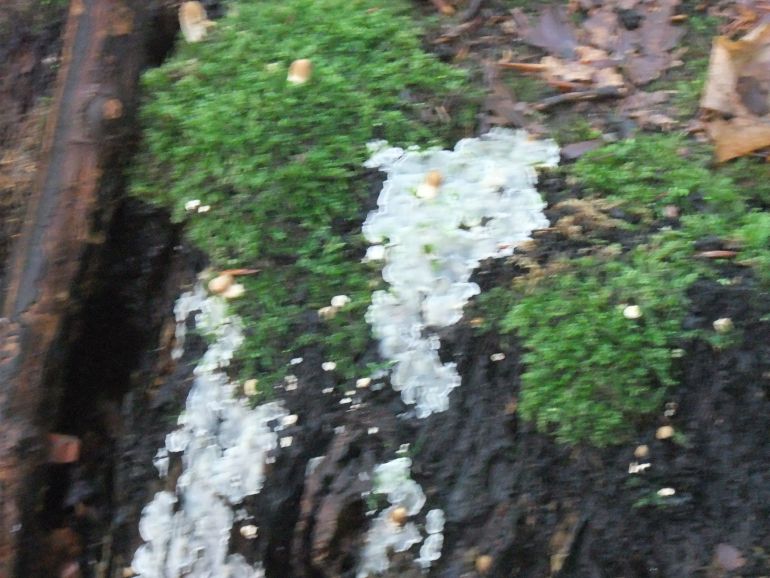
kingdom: Fungi
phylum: Basidiomycota
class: Agaricomycetes
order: Polyporales
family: Meruliaceae
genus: Physisporinus
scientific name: Physisporinus vitreus
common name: mastesvamp
